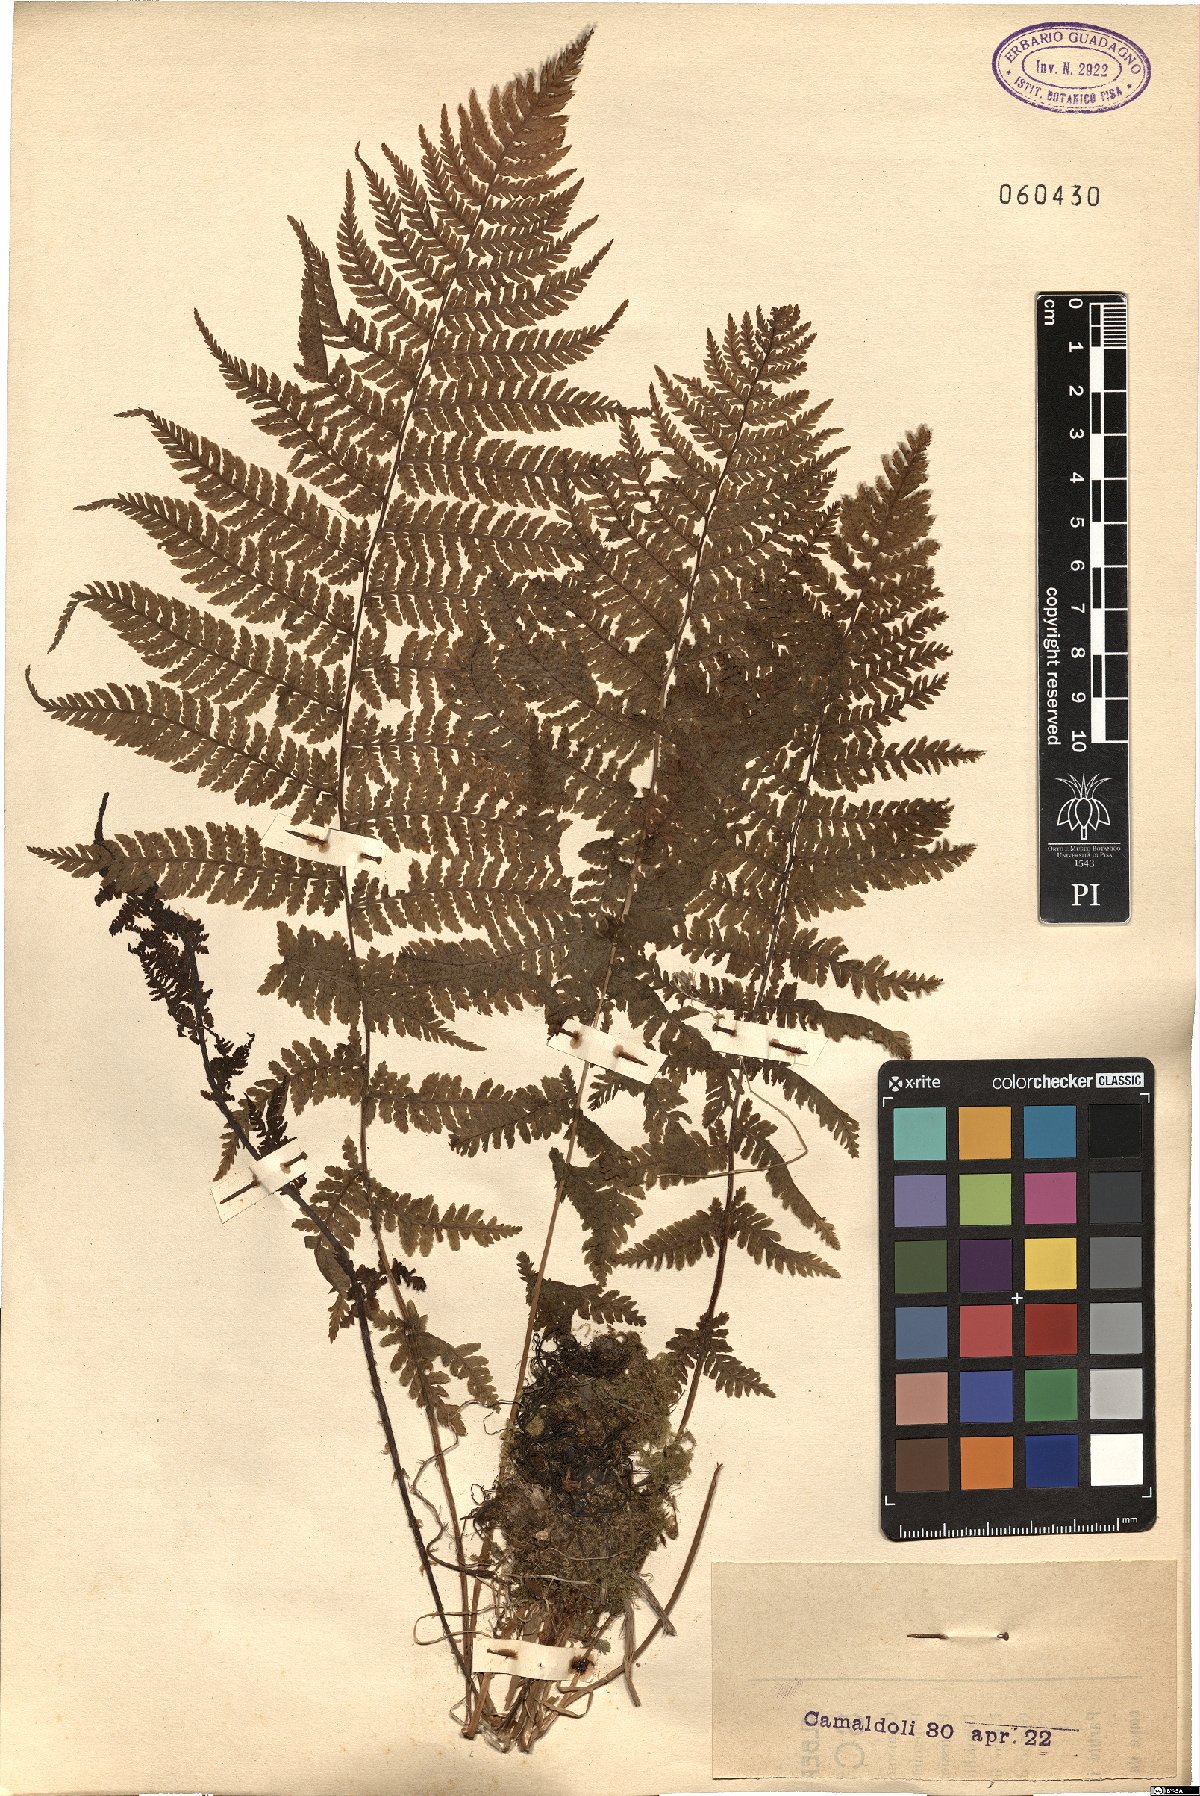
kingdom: Plantae
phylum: Tracheophyta
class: Polypodiopsida
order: Polypodiales
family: Dryopteridaceae
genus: Dryopteris
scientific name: Dryopteris
